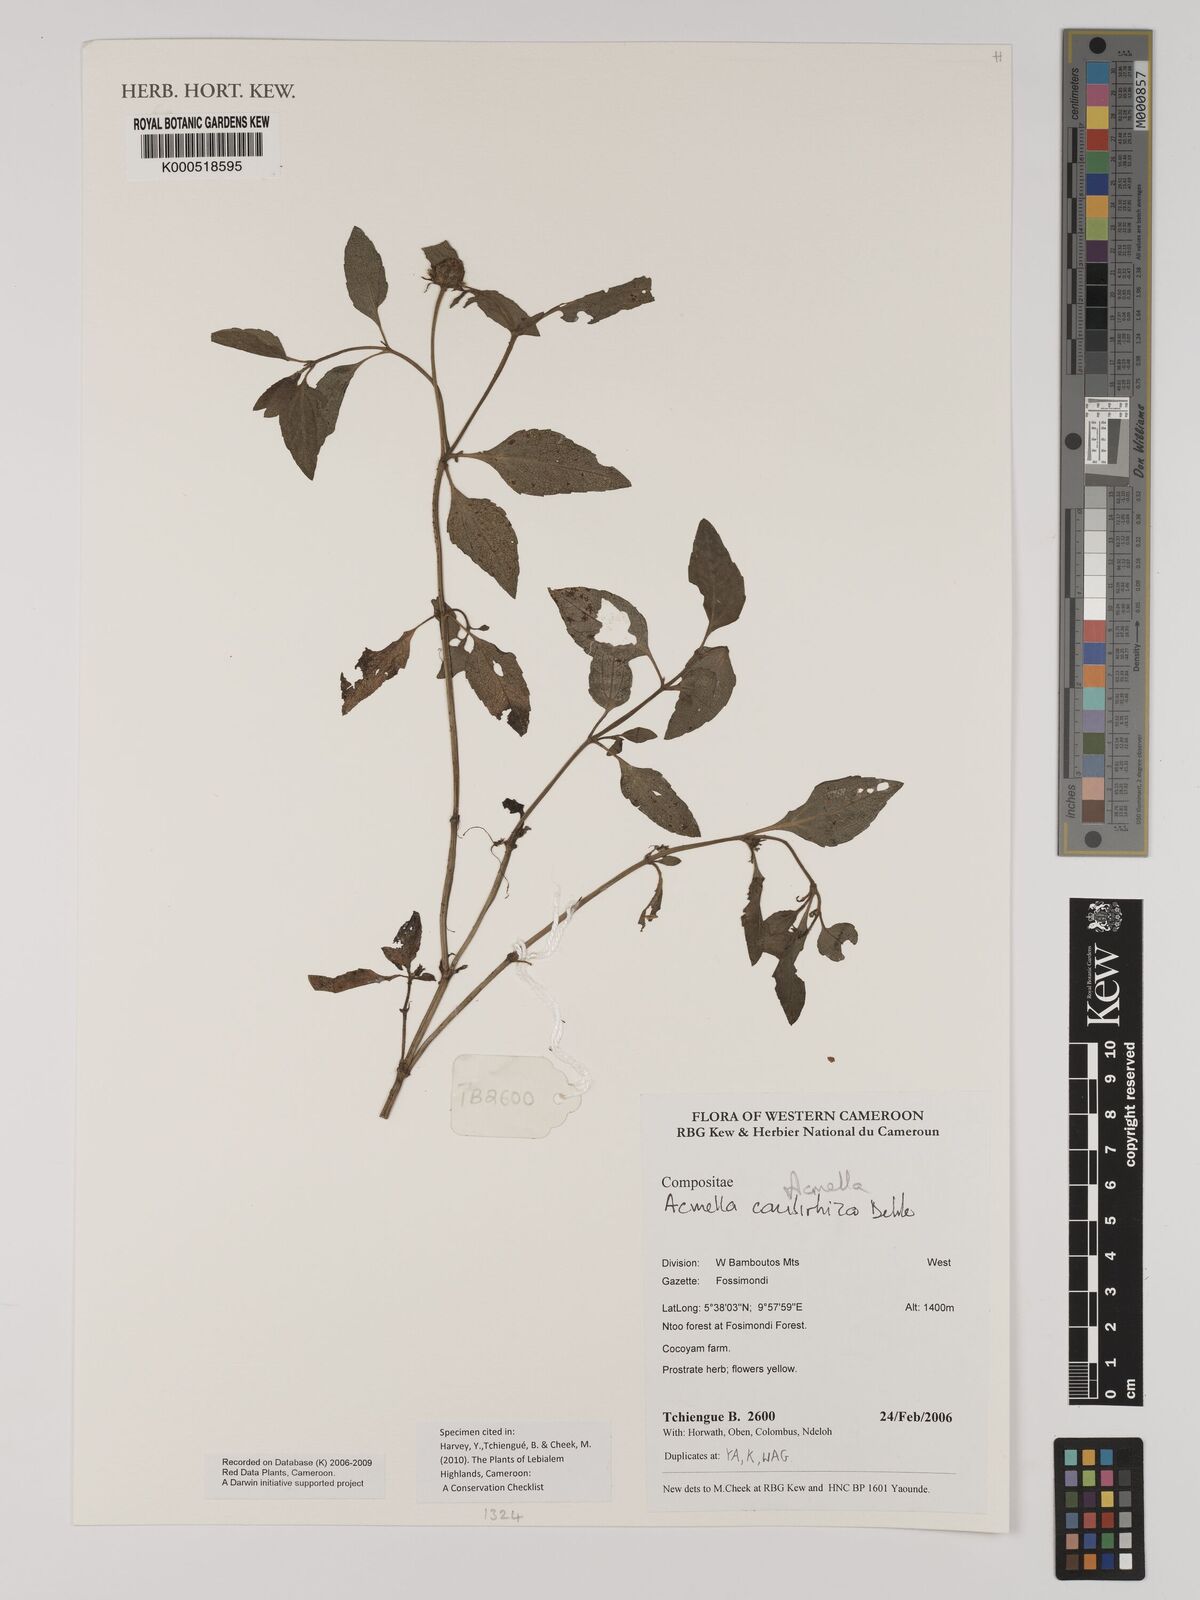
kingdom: Plantae
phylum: Tracheophyta
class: Magnoliopsida
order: Asterales
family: Asteraceae
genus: Acmella
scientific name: Acmella caulirhiza
